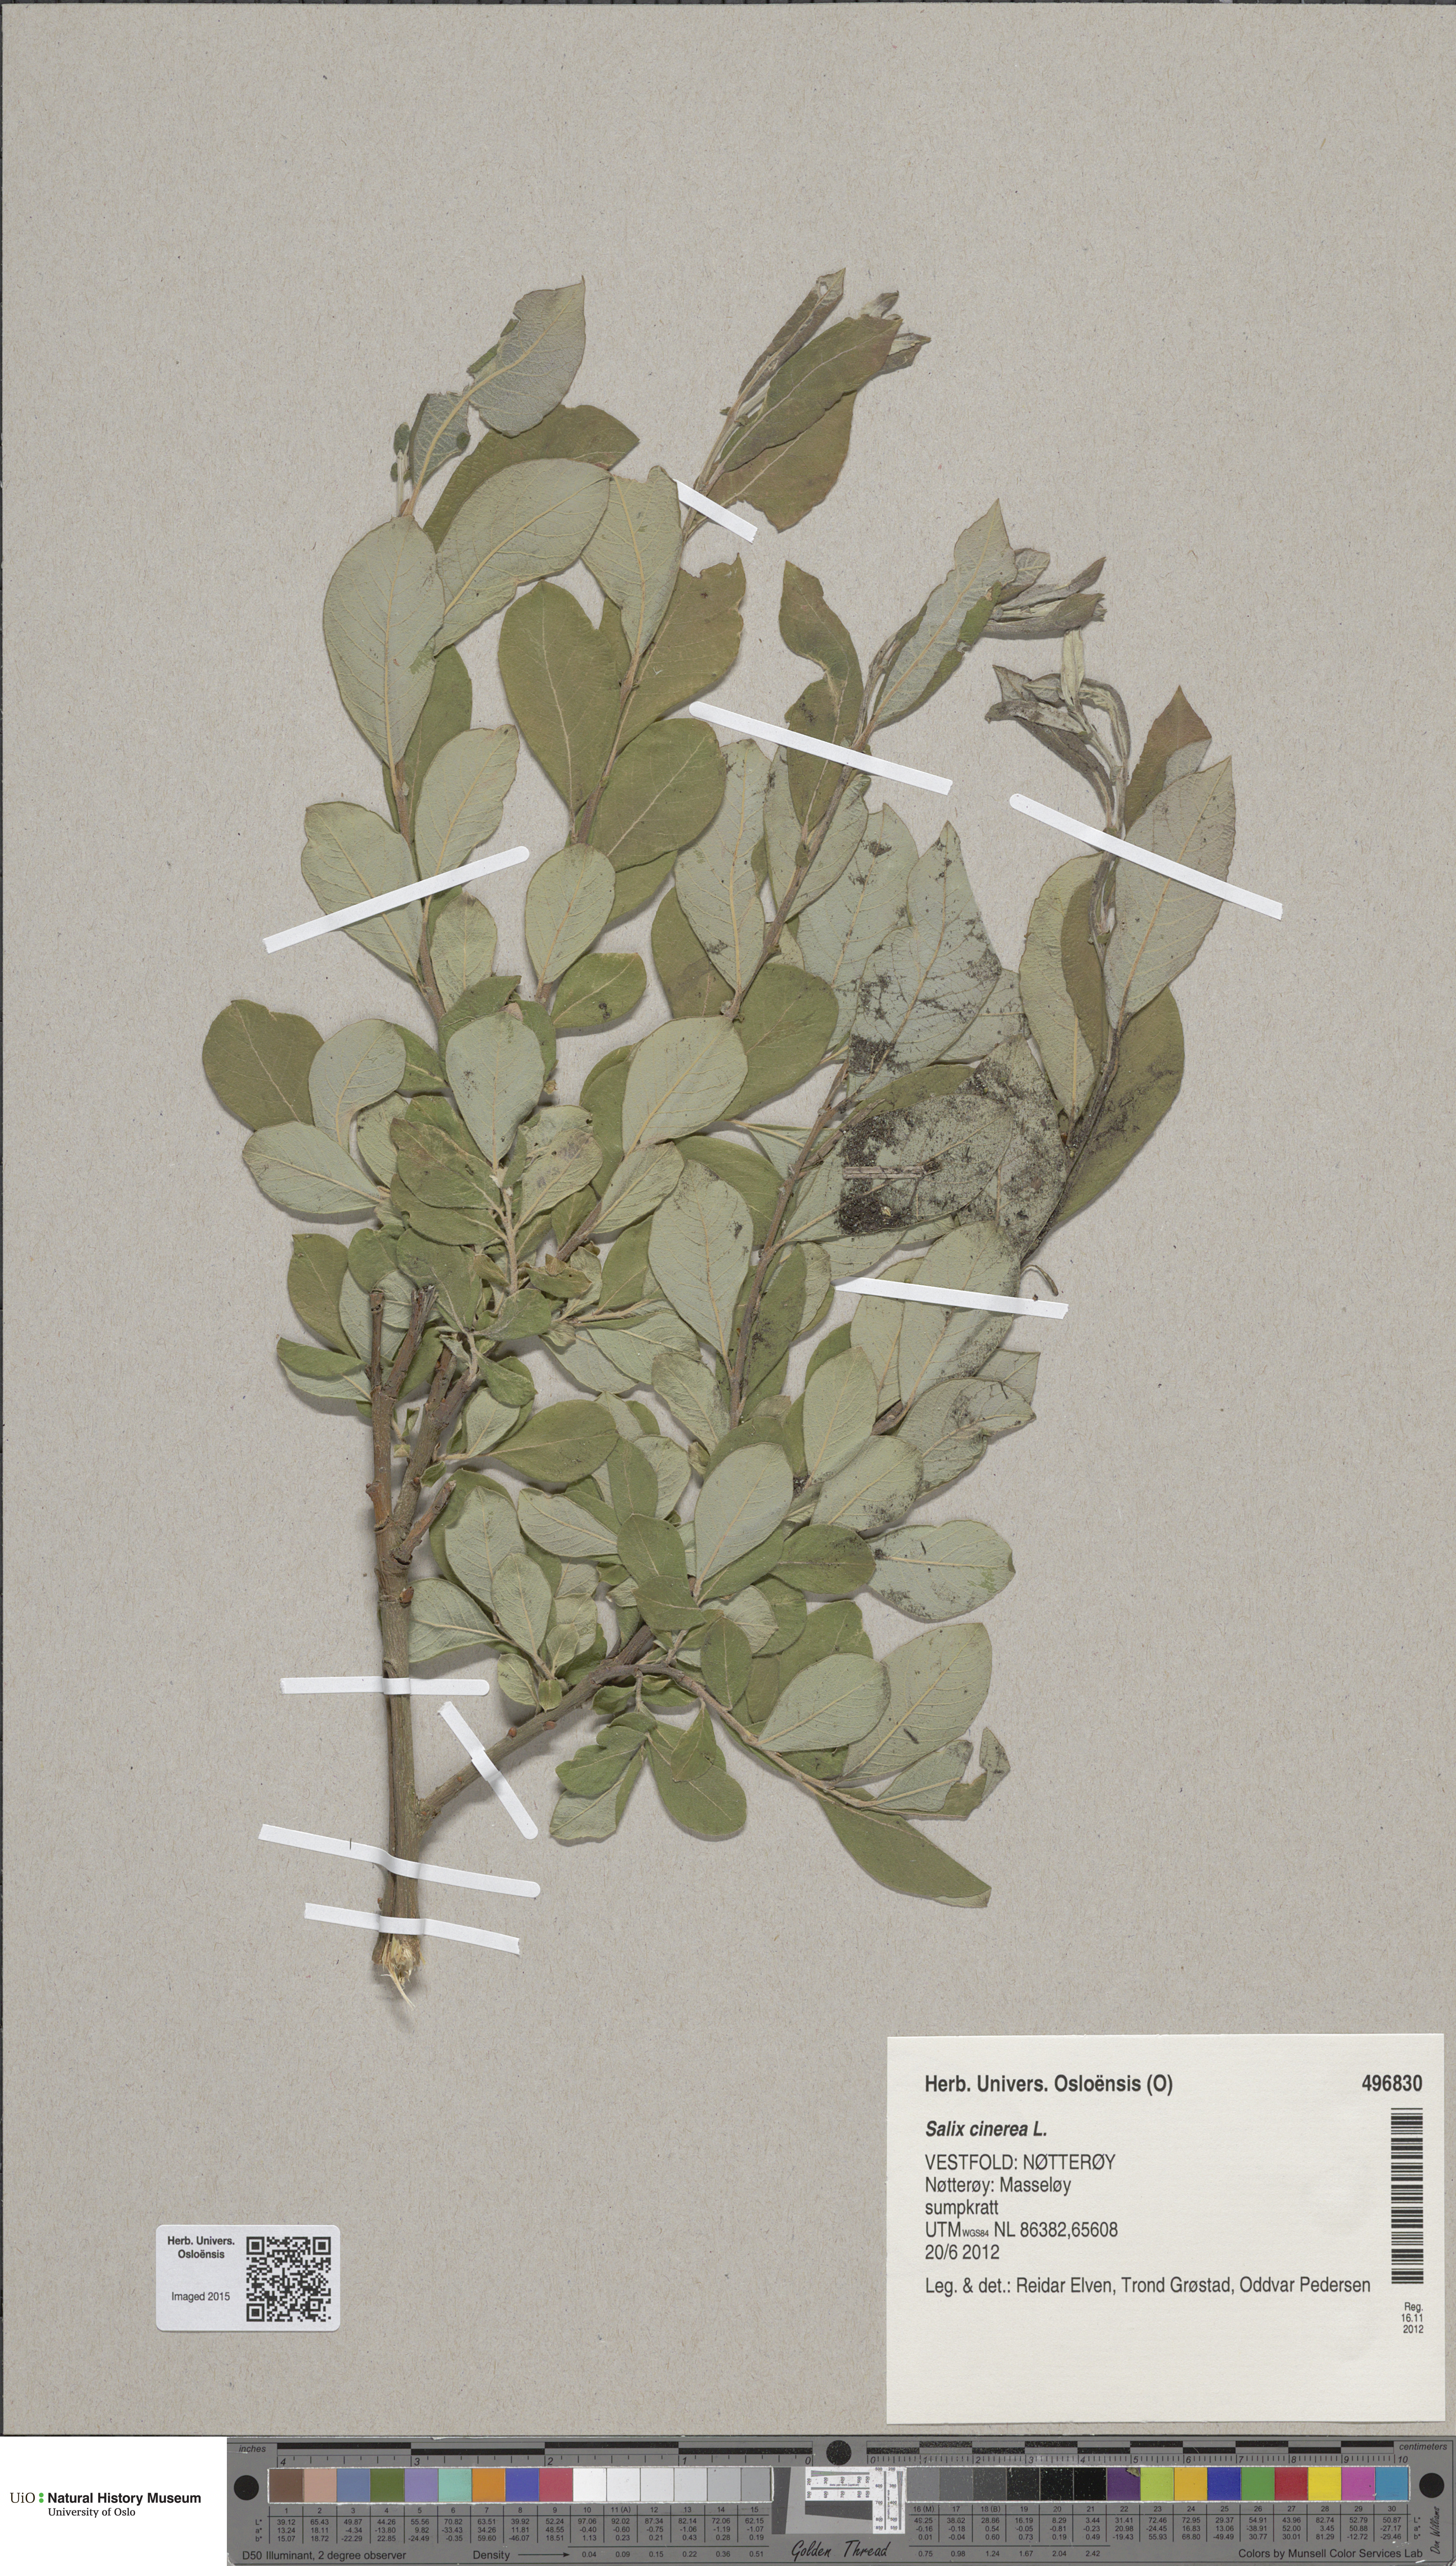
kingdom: Plantae
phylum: Tracheophyta
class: Magnoliopsida
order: Malpighiales
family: Salicaceae
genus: Salix
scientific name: Salix cinerea
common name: Common sallow
